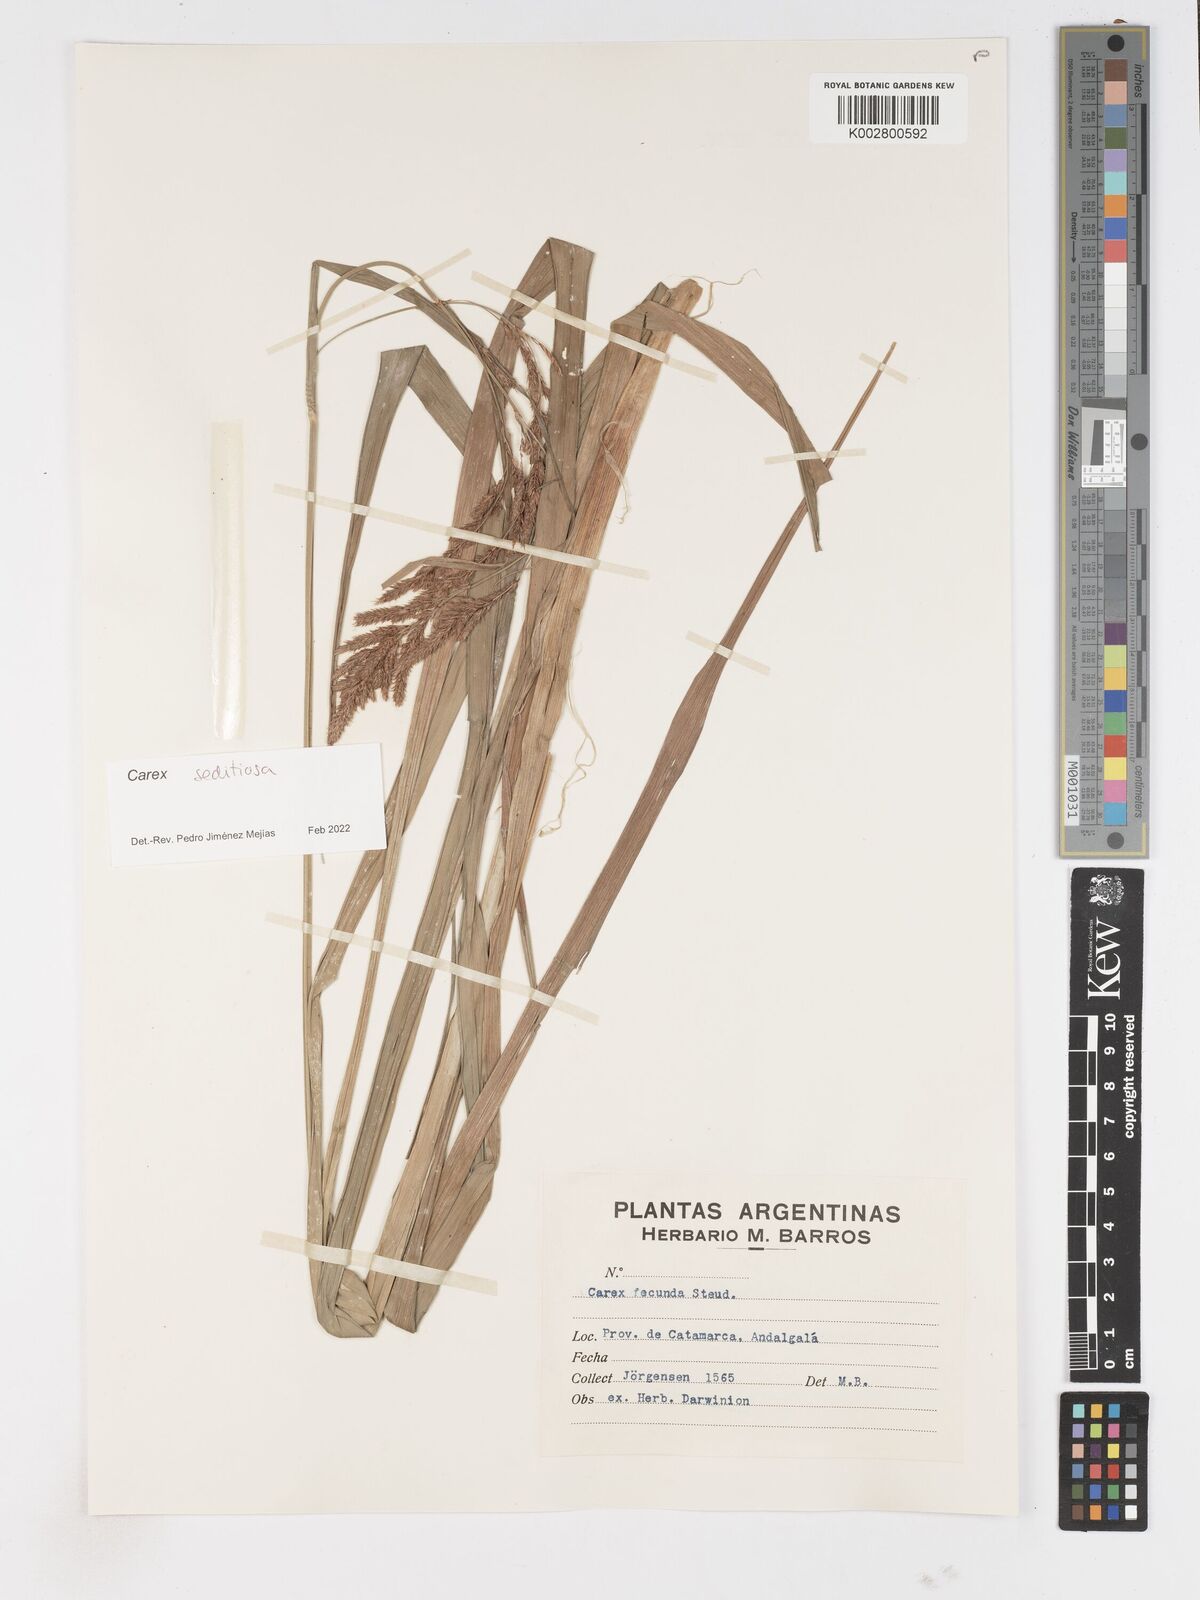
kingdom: Plantae
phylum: Tracheophyta
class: Liliopsida
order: Poales
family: Cyperaceae
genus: Carex
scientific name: Carex fecunda
